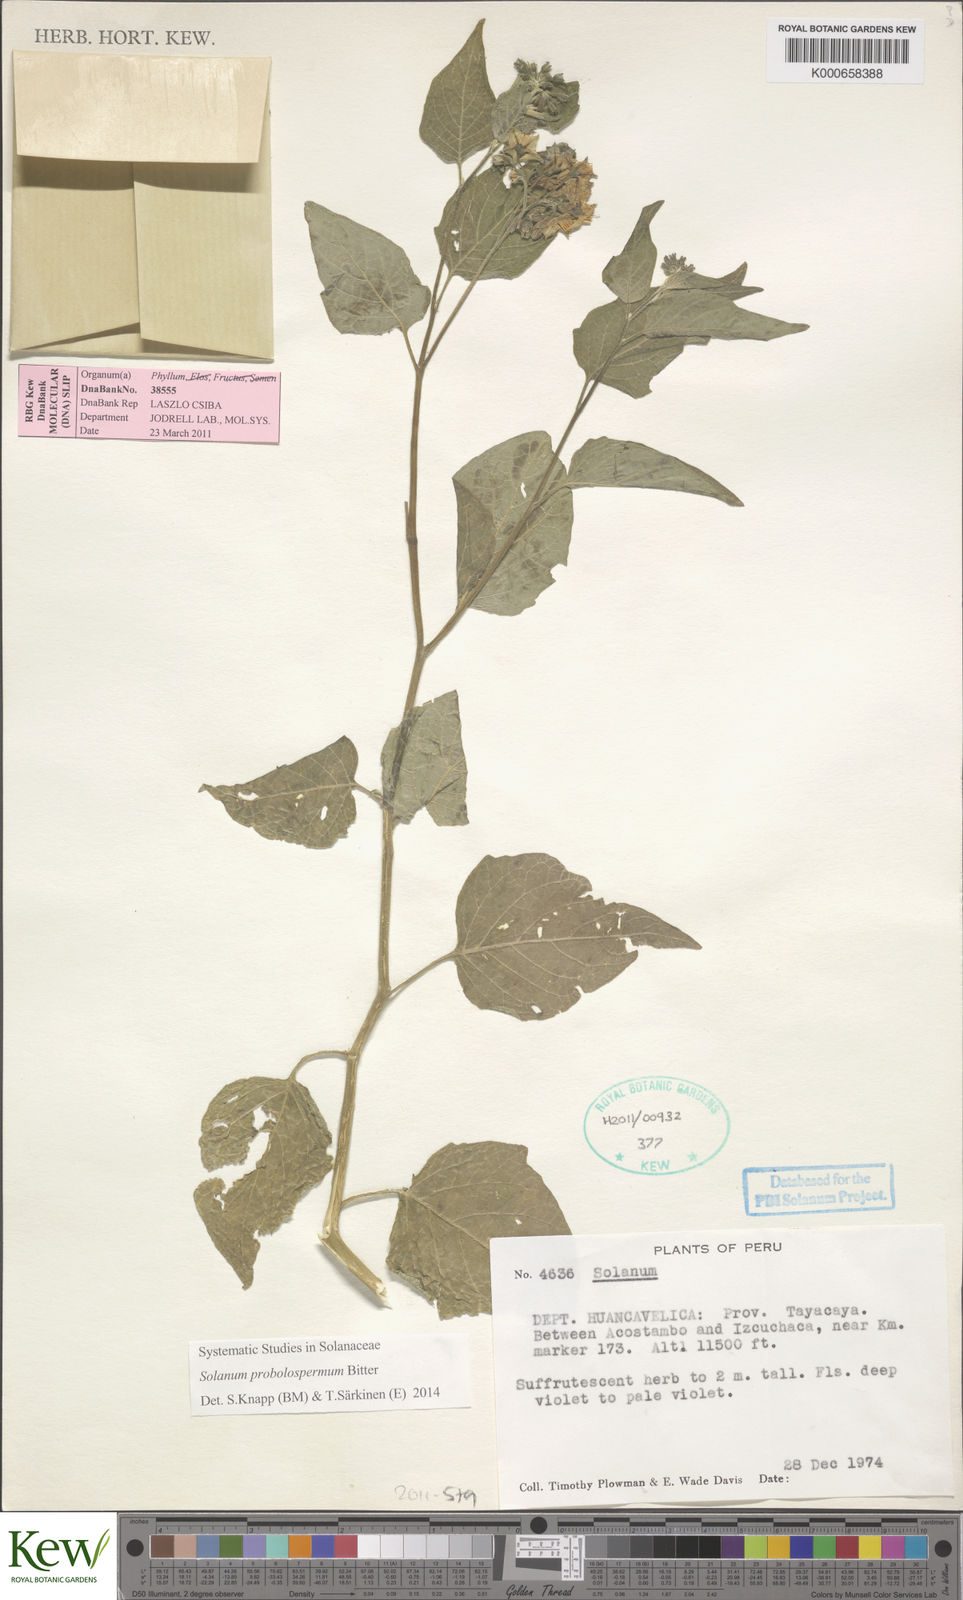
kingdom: Plantae
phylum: Tracheophyta
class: Magnoliopsida
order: Solanales
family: Solanaceae
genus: Solanum
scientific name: Solanum probolospermum
